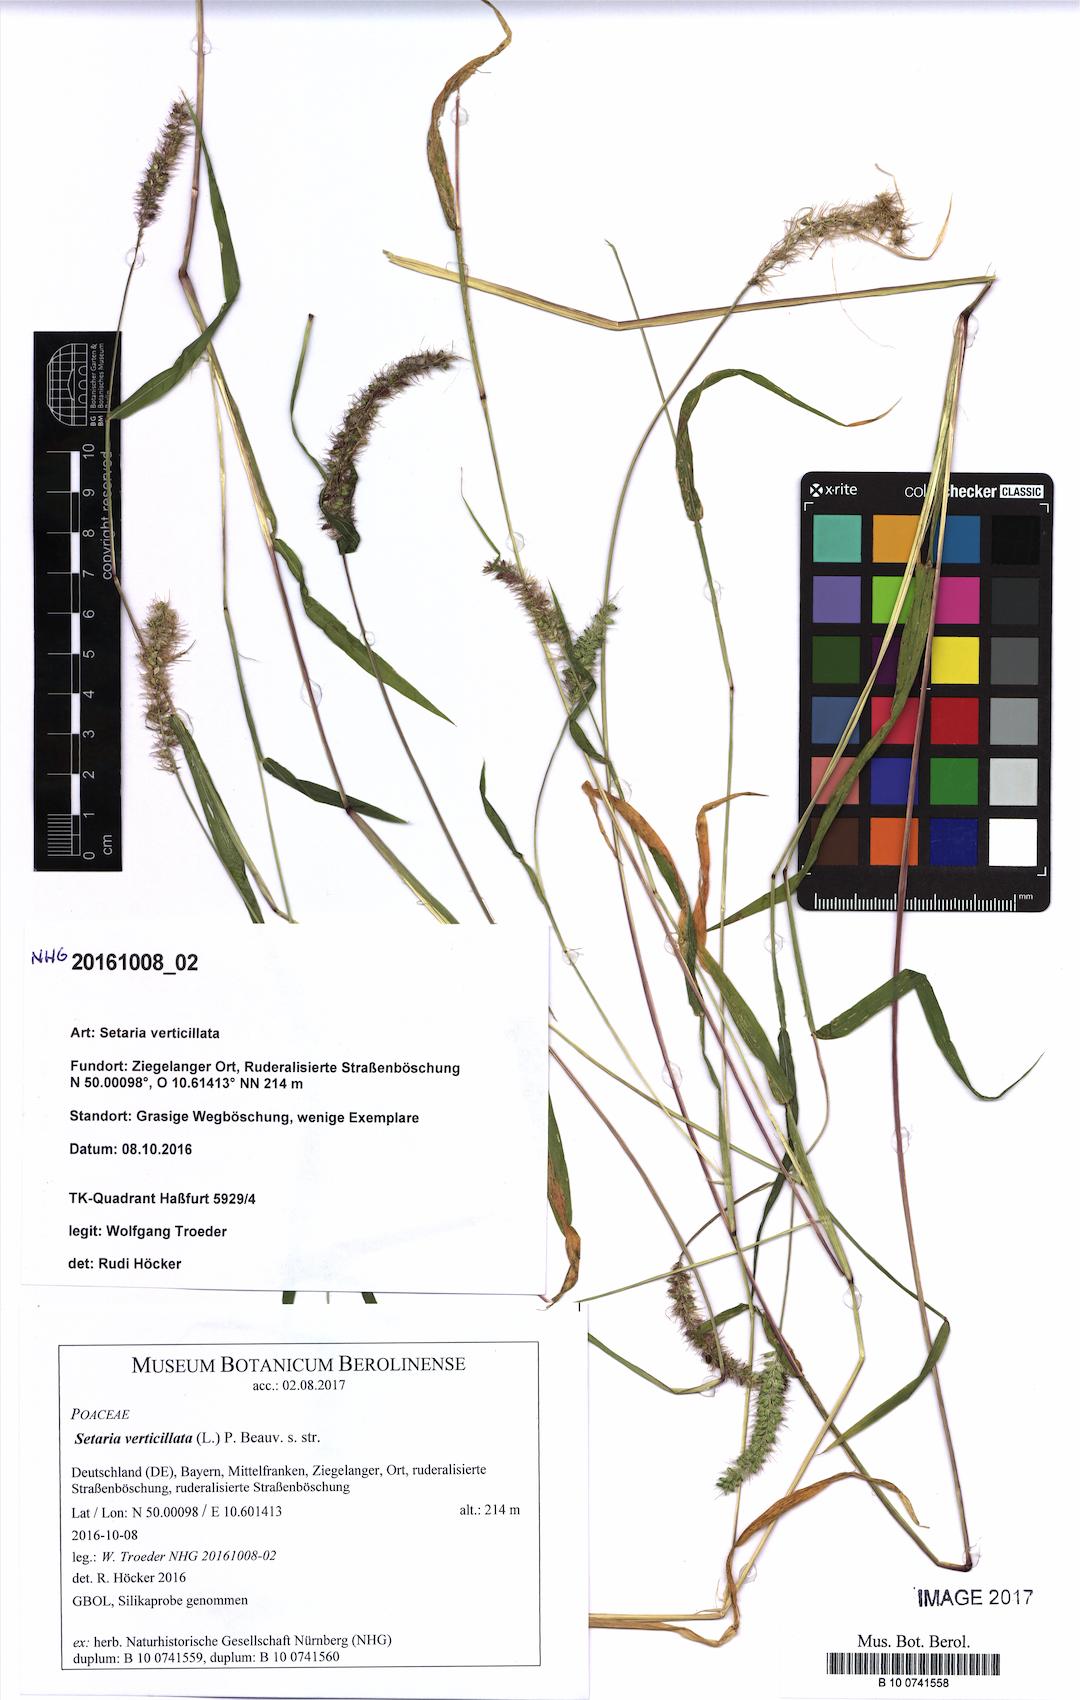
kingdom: Plantae
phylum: Tracheophyta
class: Liliopsida
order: Poales
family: Poaceae
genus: Setaria
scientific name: Setaria verticillata
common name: Hooked bristlegrass
